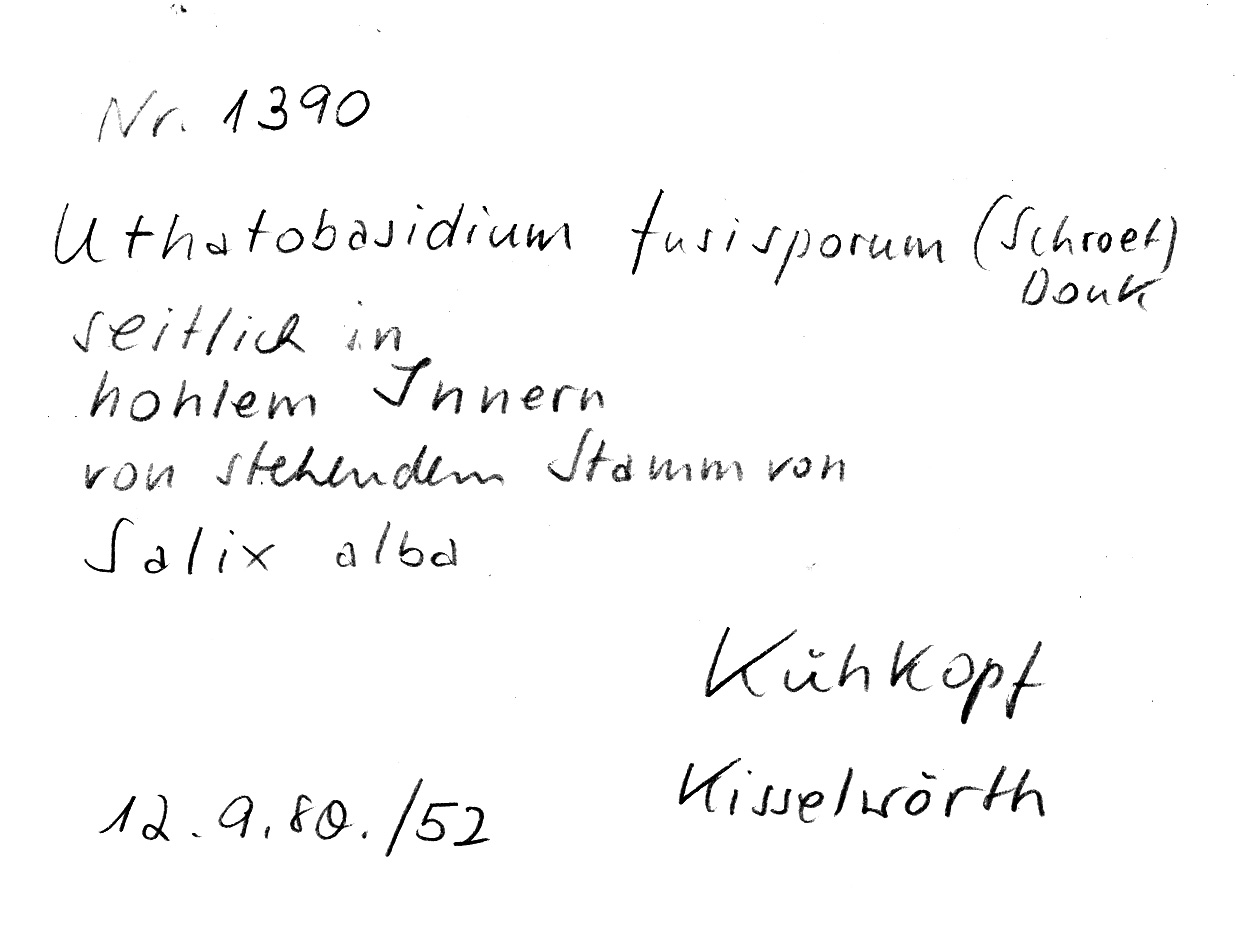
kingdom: Plantae
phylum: Tracheophyta
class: Magnoliopsida
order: Malpighiales
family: Salicaceae
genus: Salix
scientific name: Salix alba
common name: White willow
